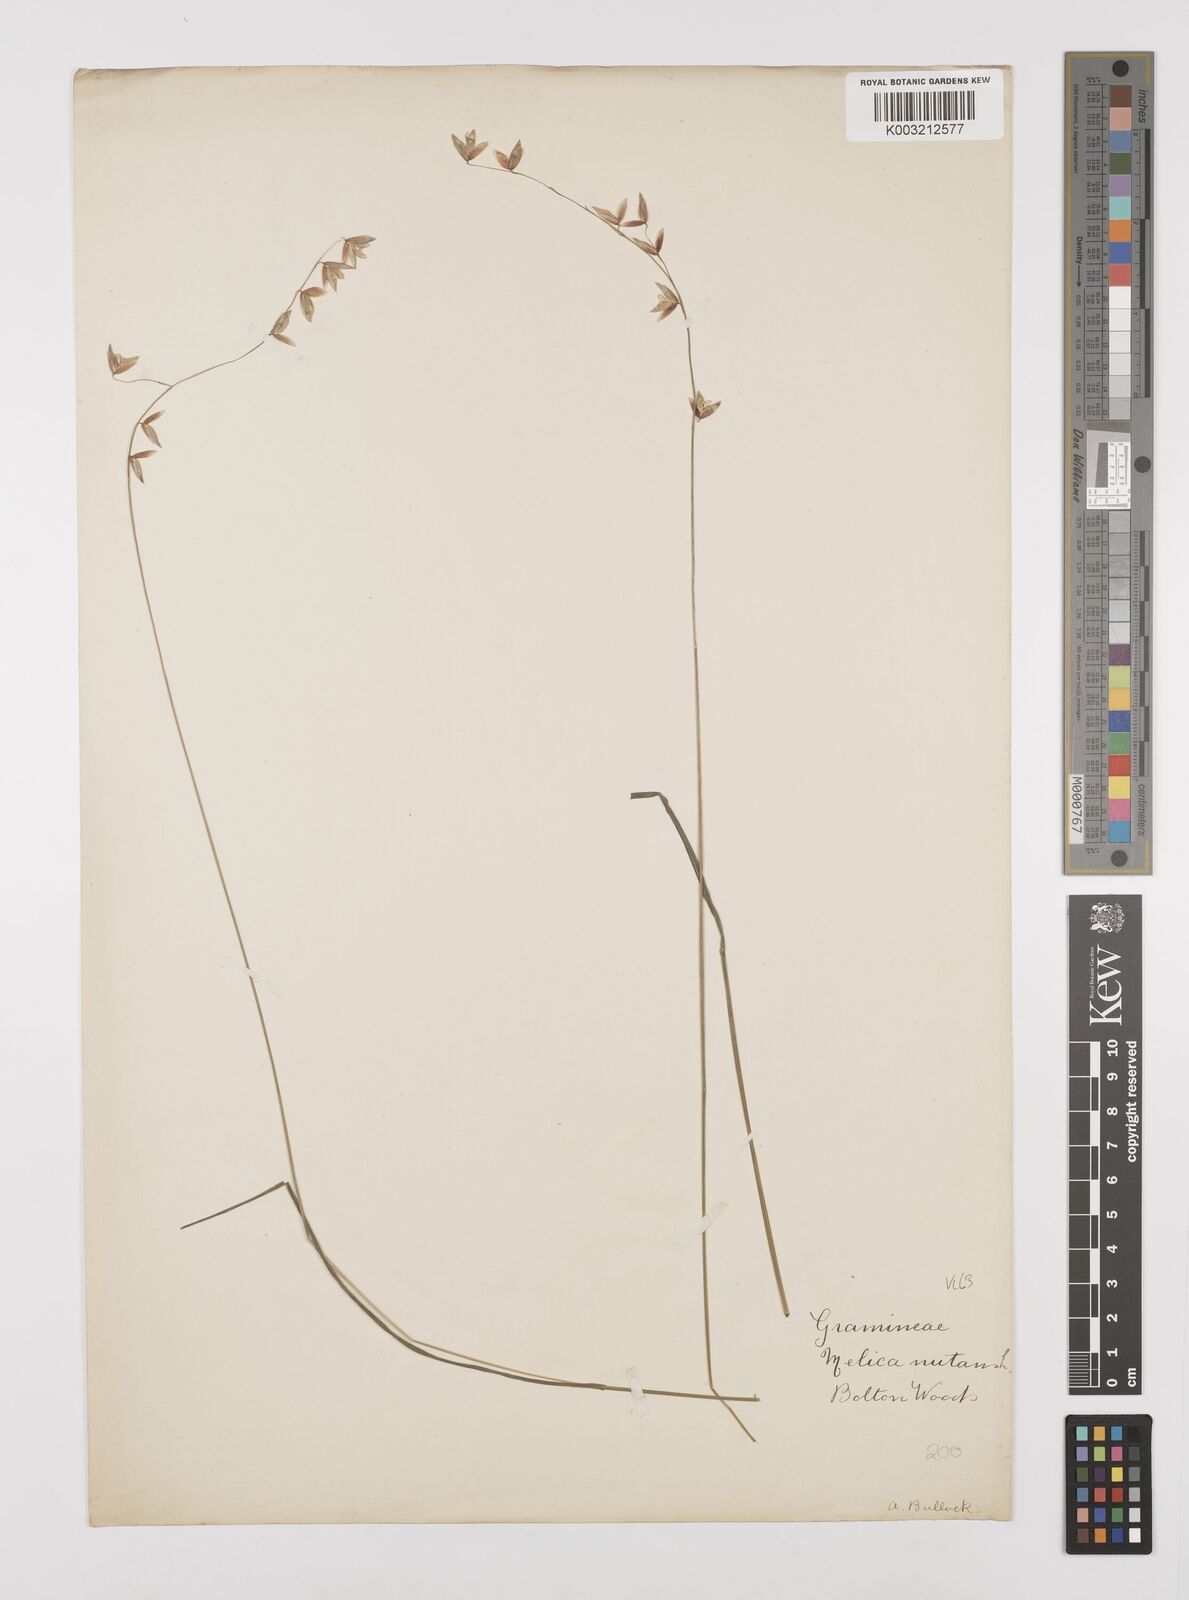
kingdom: Plantae
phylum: Tracheophyta
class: Liliopsida
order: Poales
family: Poaceae
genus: Melica
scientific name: Melica
